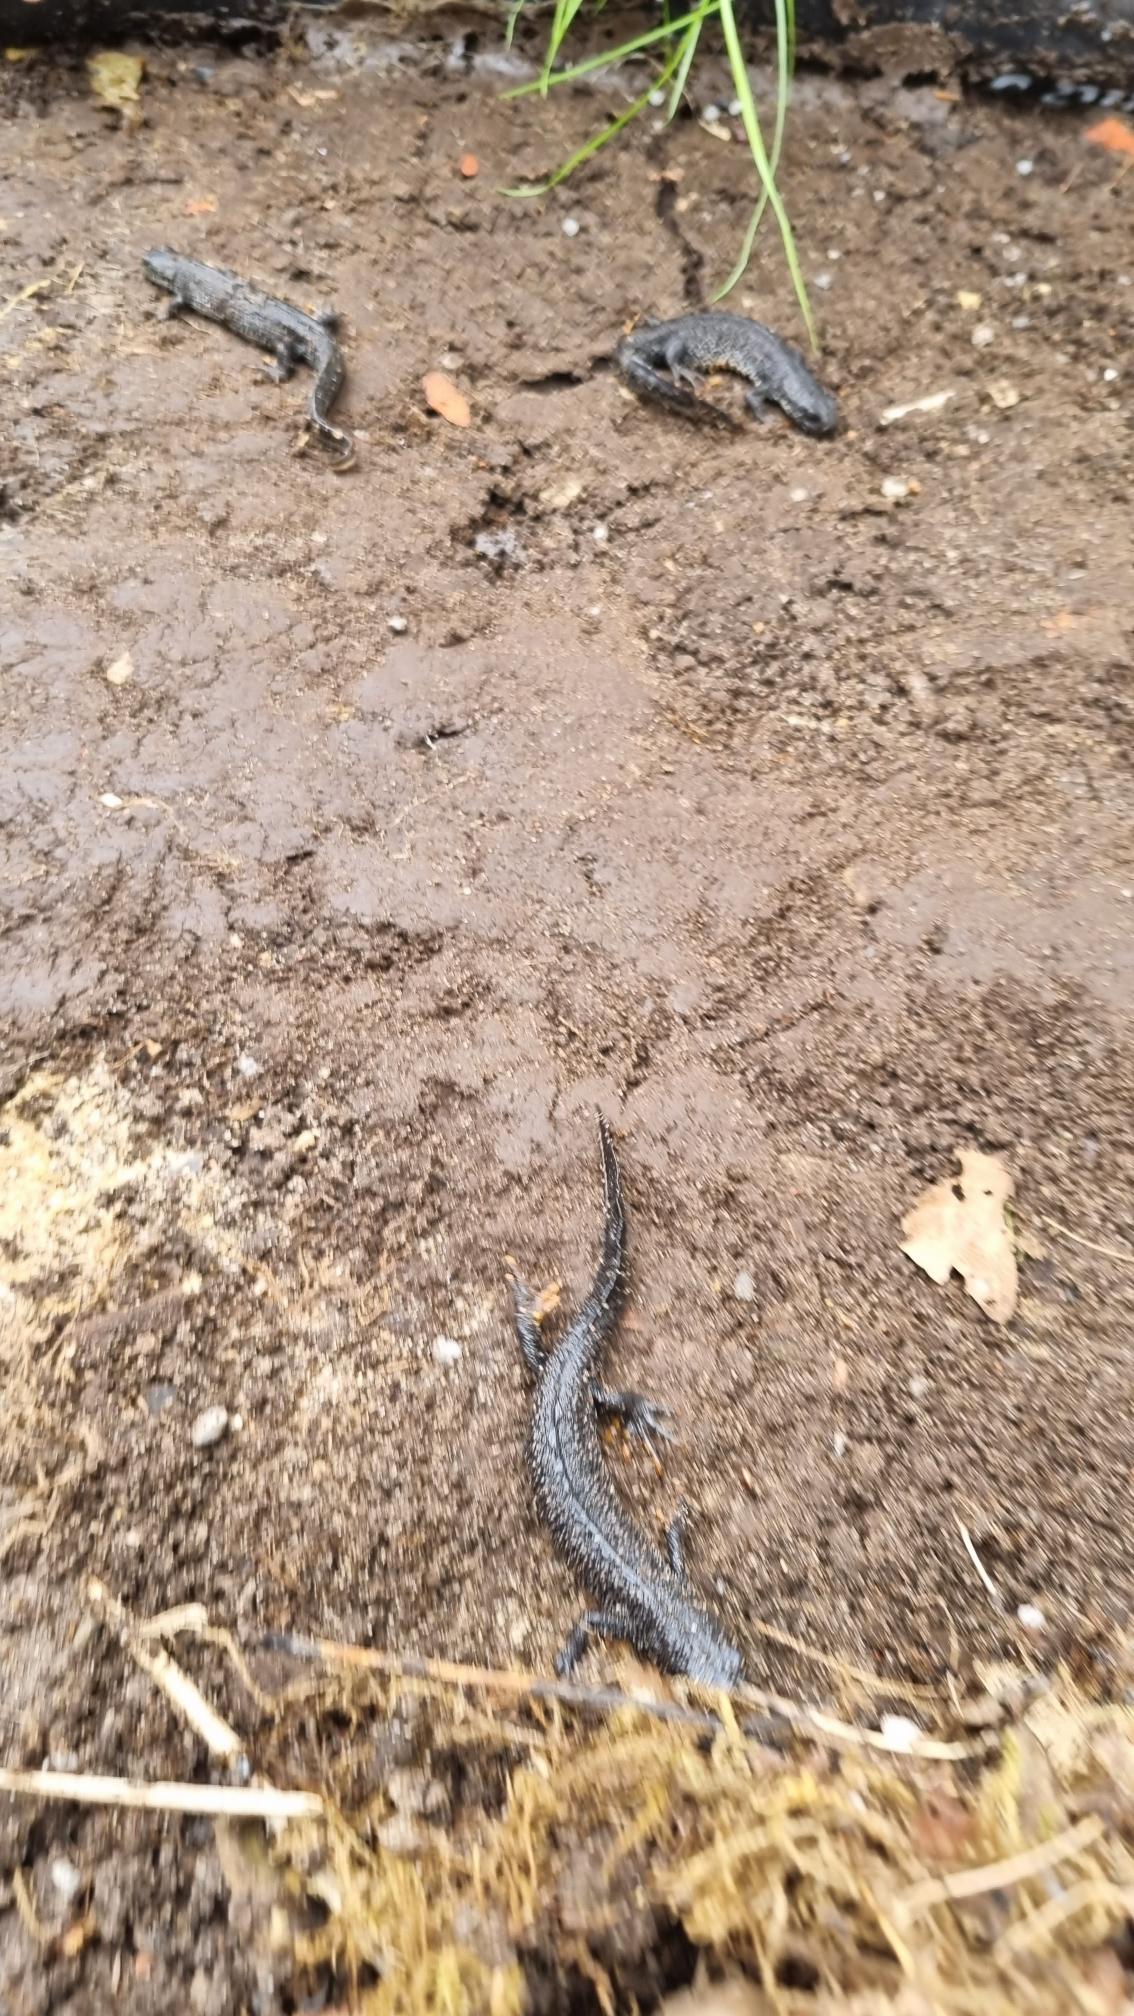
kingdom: Animalia
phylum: Chordata
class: Amphibia
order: Caudata
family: Salamandridae
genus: Triturus
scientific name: Triturus cristatus
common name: Stor vandsalamander
